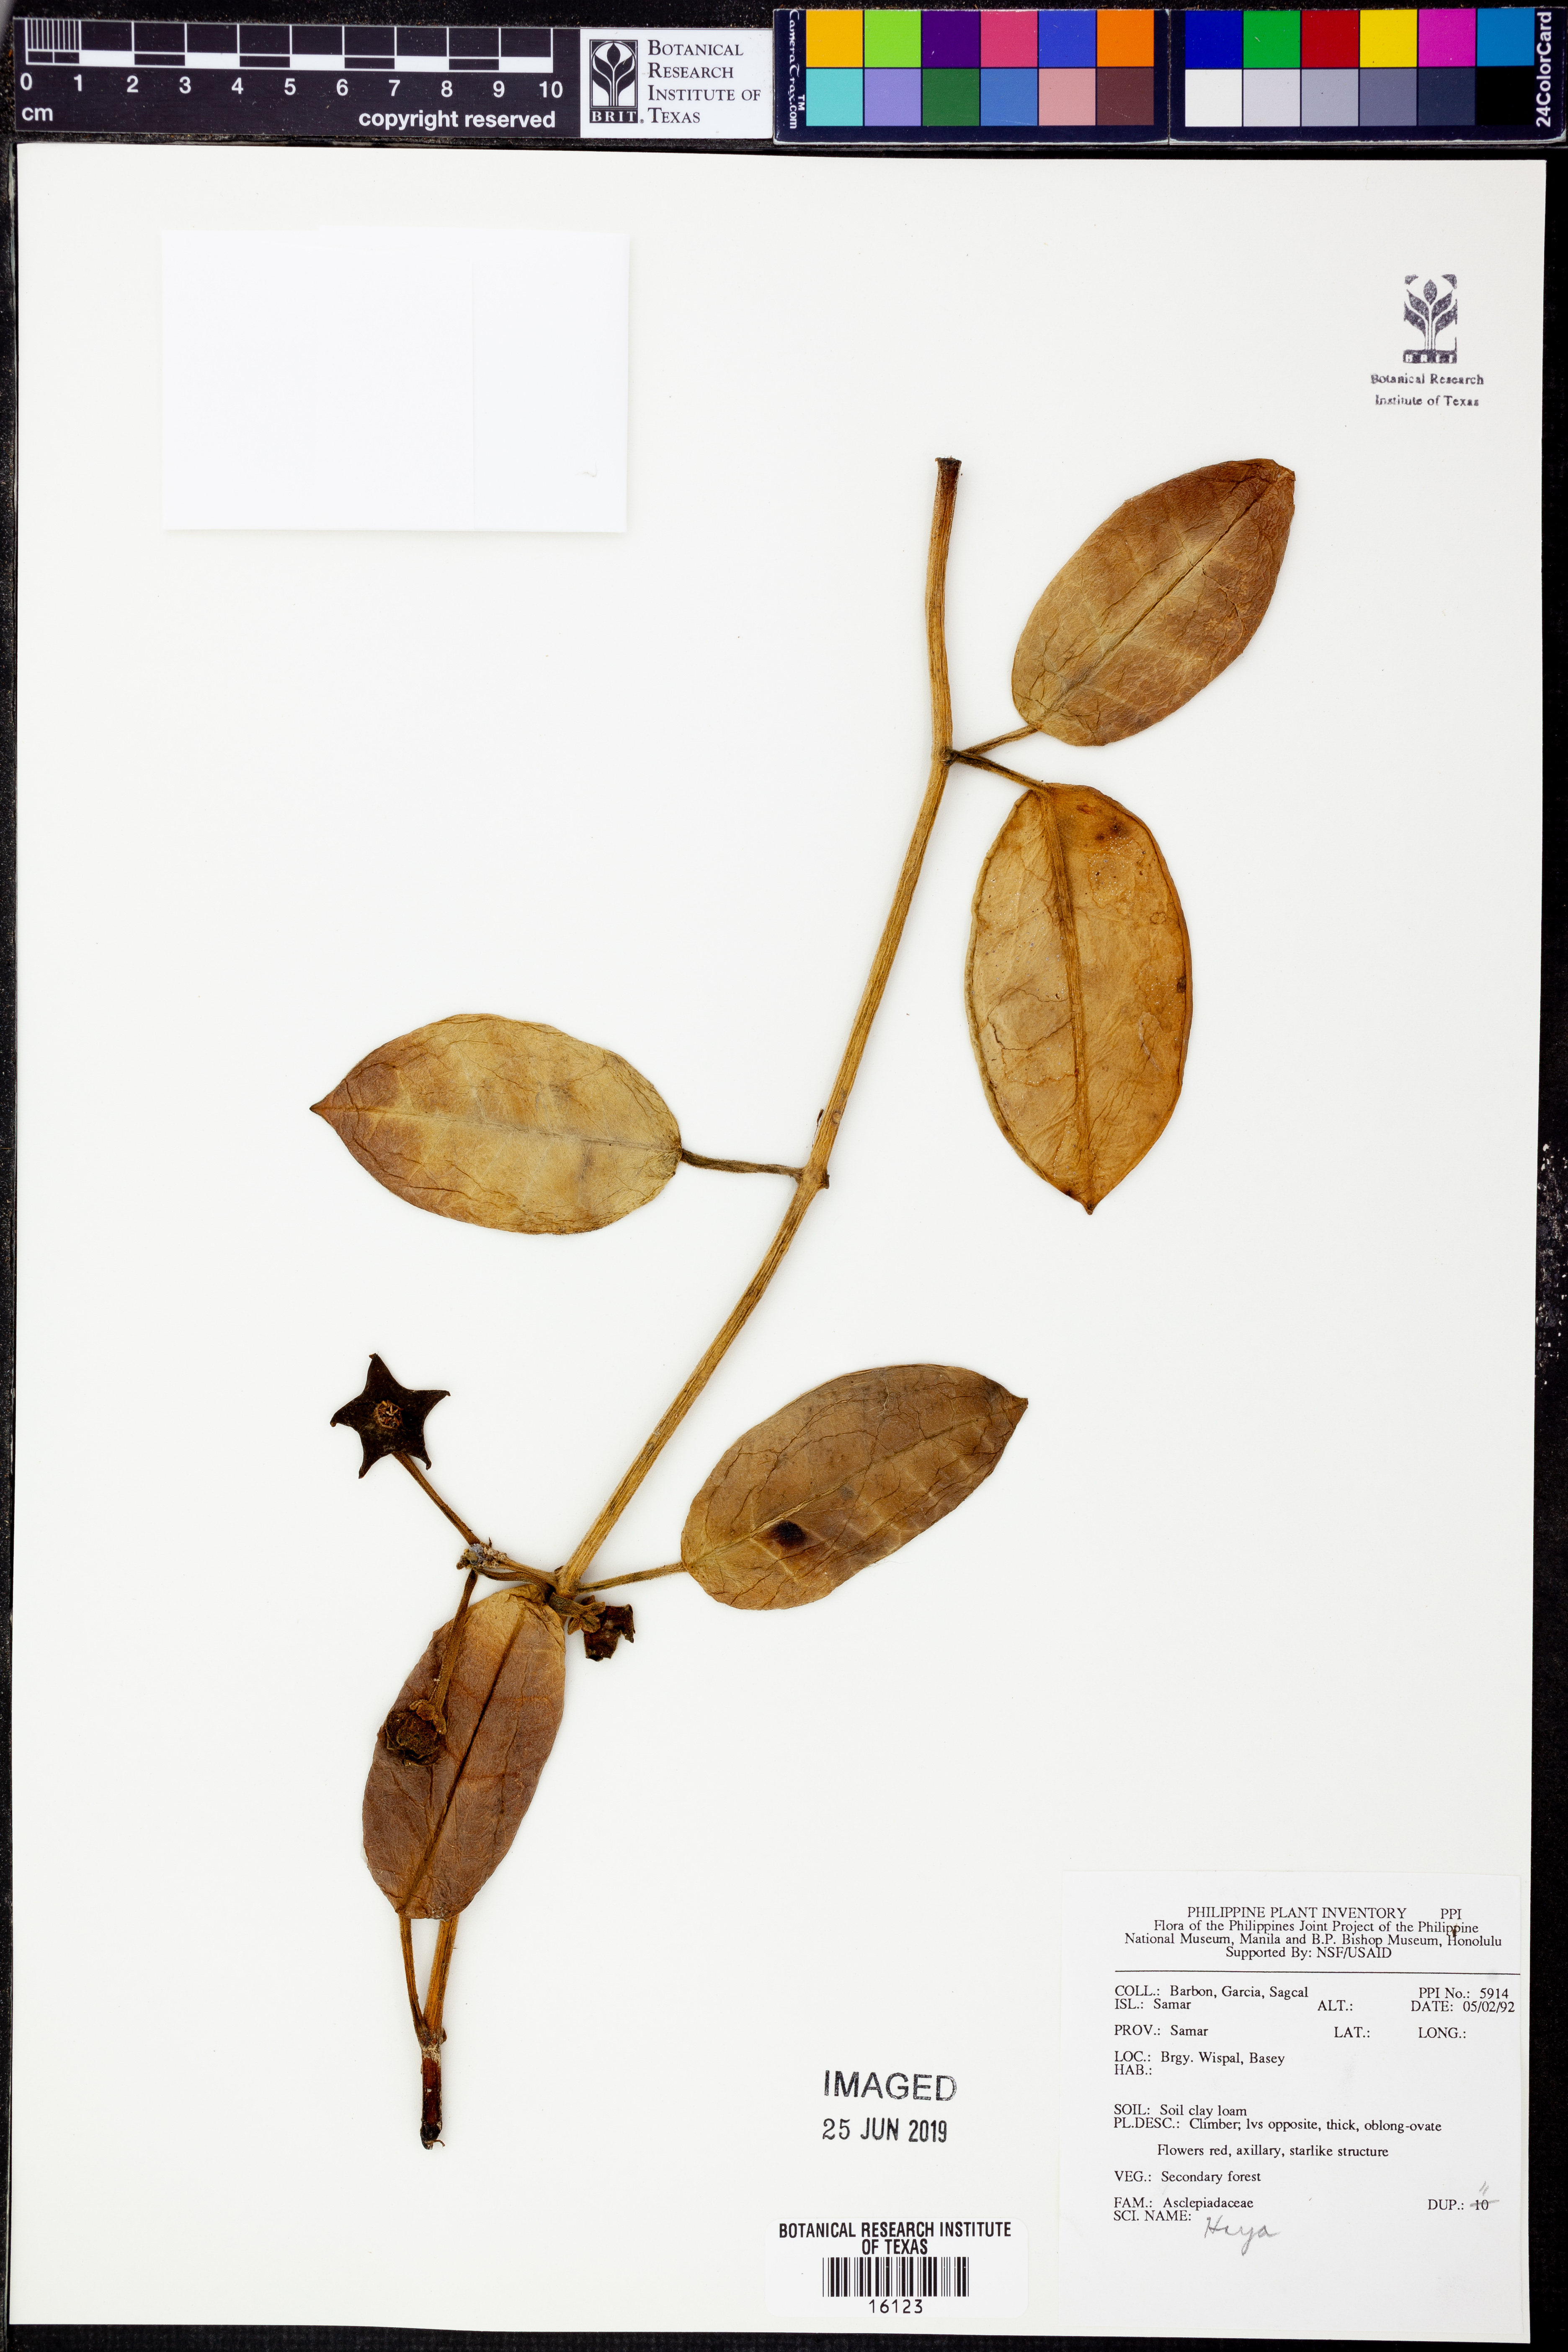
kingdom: Plantae
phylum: Tracheophyta
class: Magnoliopsida
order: Gentianales
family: Apocynaceae
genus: Hoya
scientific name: Hoya
